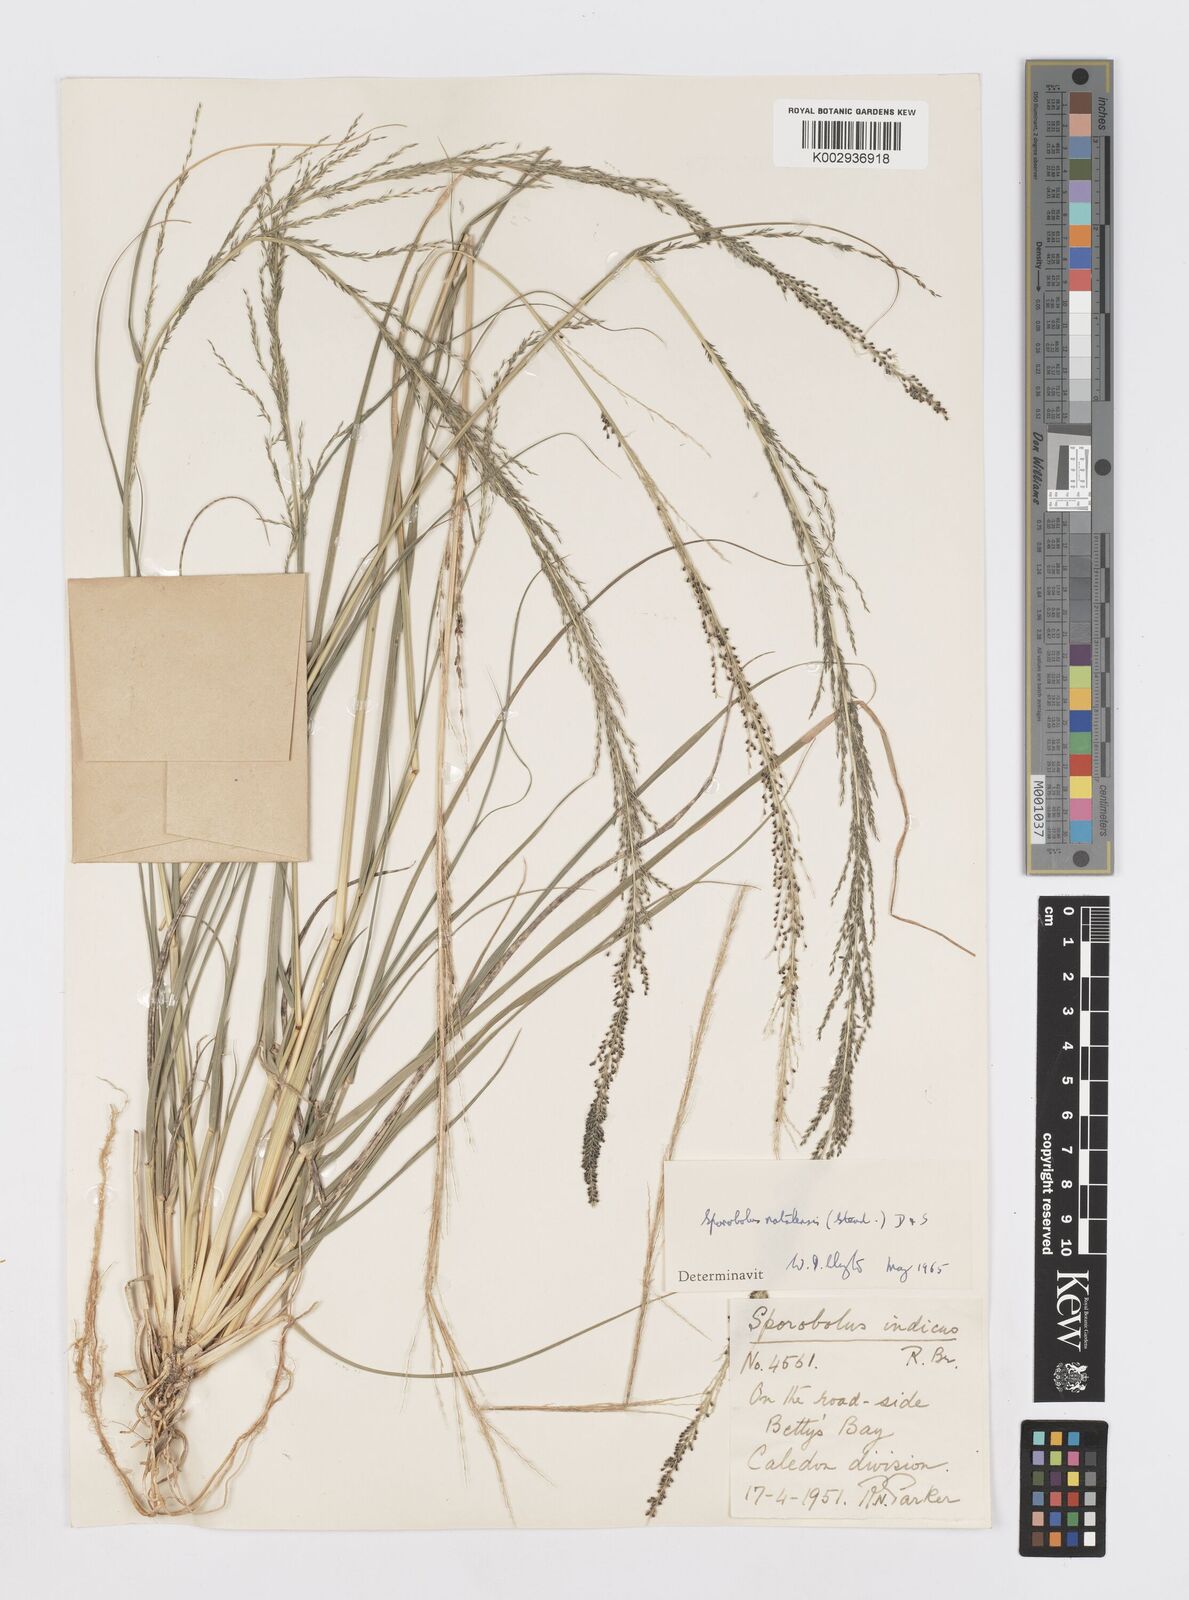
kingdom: Plantae
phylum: Tracheophyta
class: Liliopsida
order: Poales
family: Poaceae
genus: Sporobolus
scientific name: Sporobolus natalensis
